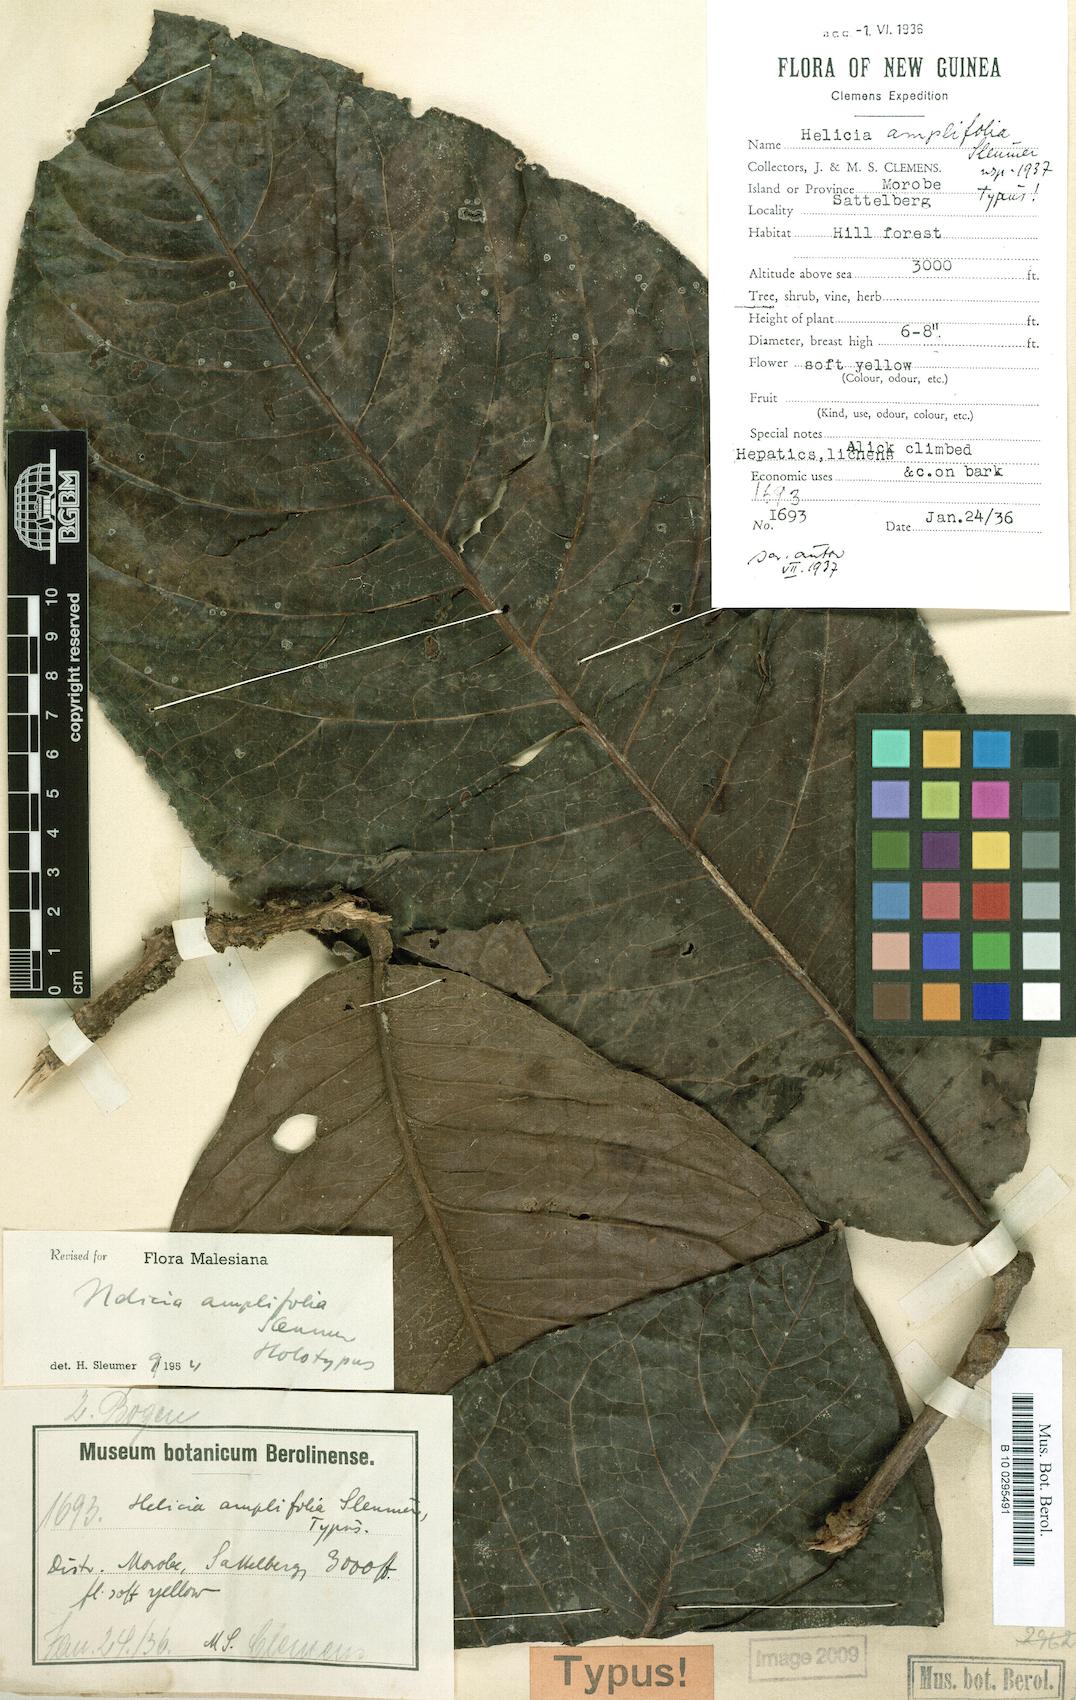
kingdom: Plantae
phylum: Tracheophyta
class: Magnoliopsida
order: Proteales
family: Proteaceae
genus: Helicia
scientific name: Helicia amplifolia
